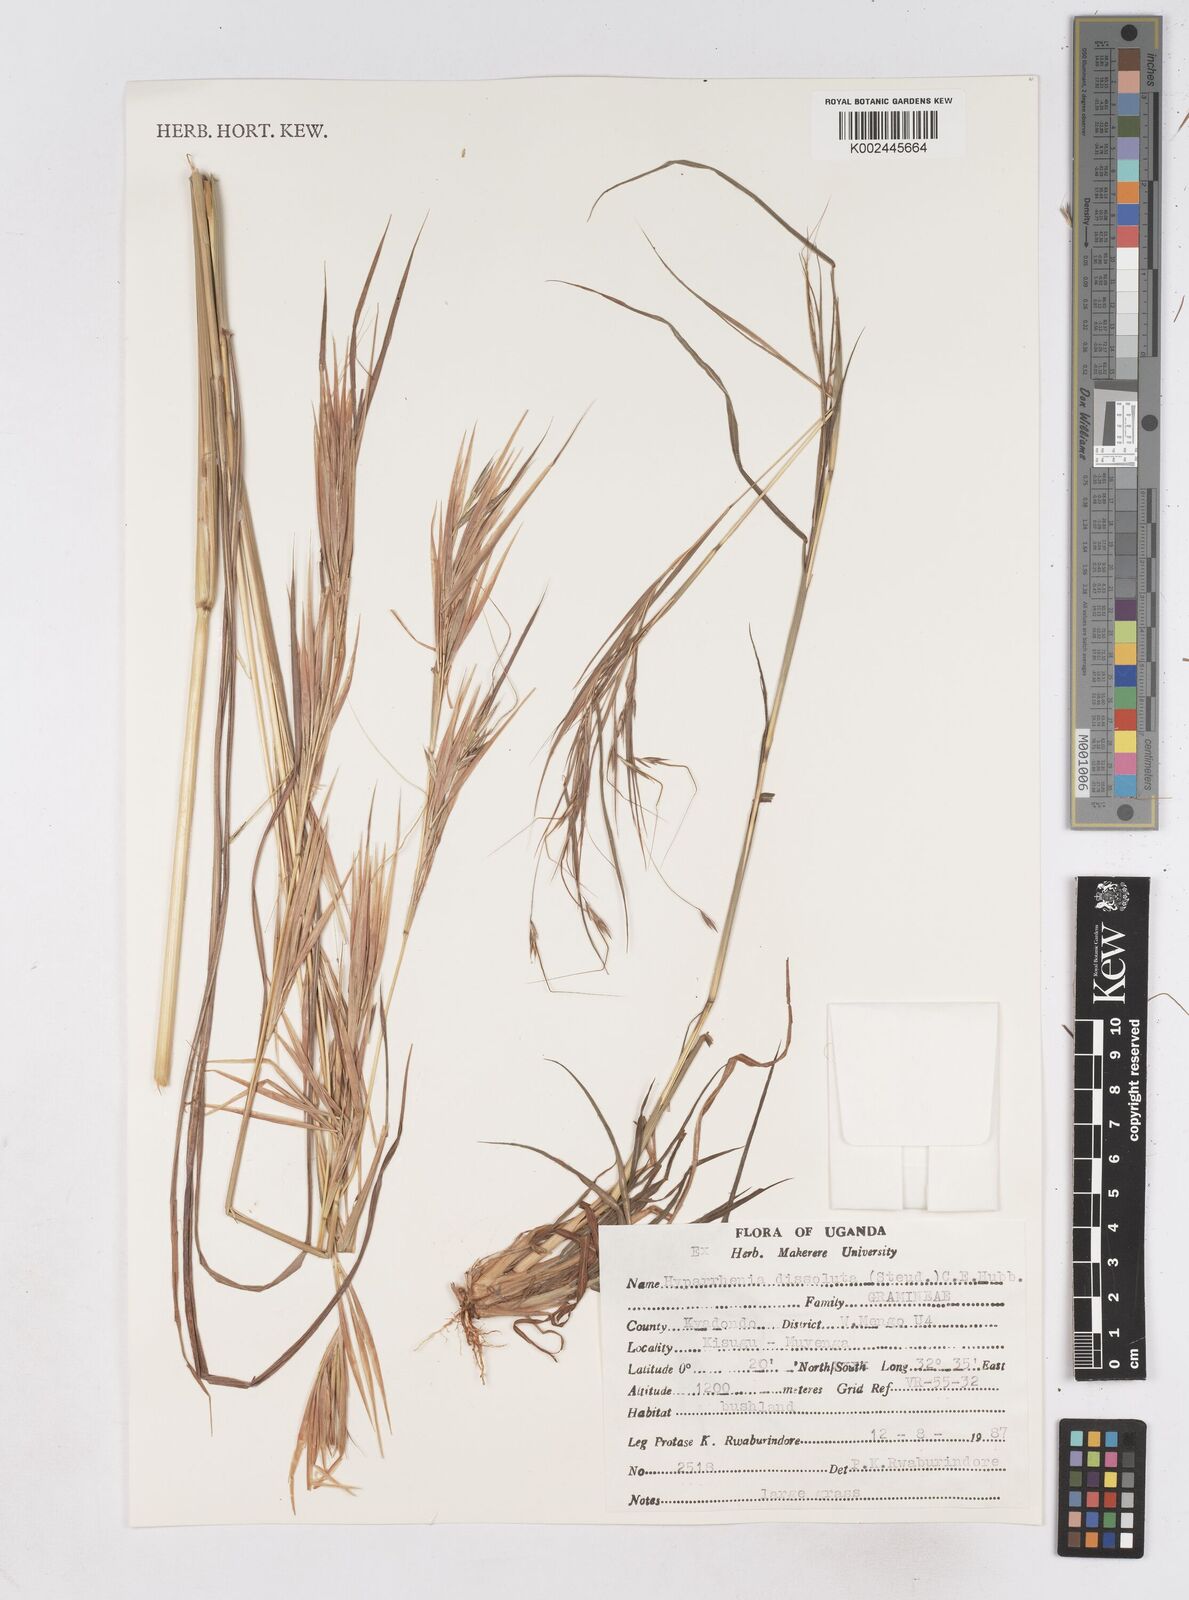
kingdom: Plantae
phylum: Tracheophyta
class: Liliopsida
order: Poales
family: Poaceae
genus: Hyperthelia
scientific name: Hyperthelia dissoluta
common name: Yellow thatching grass
